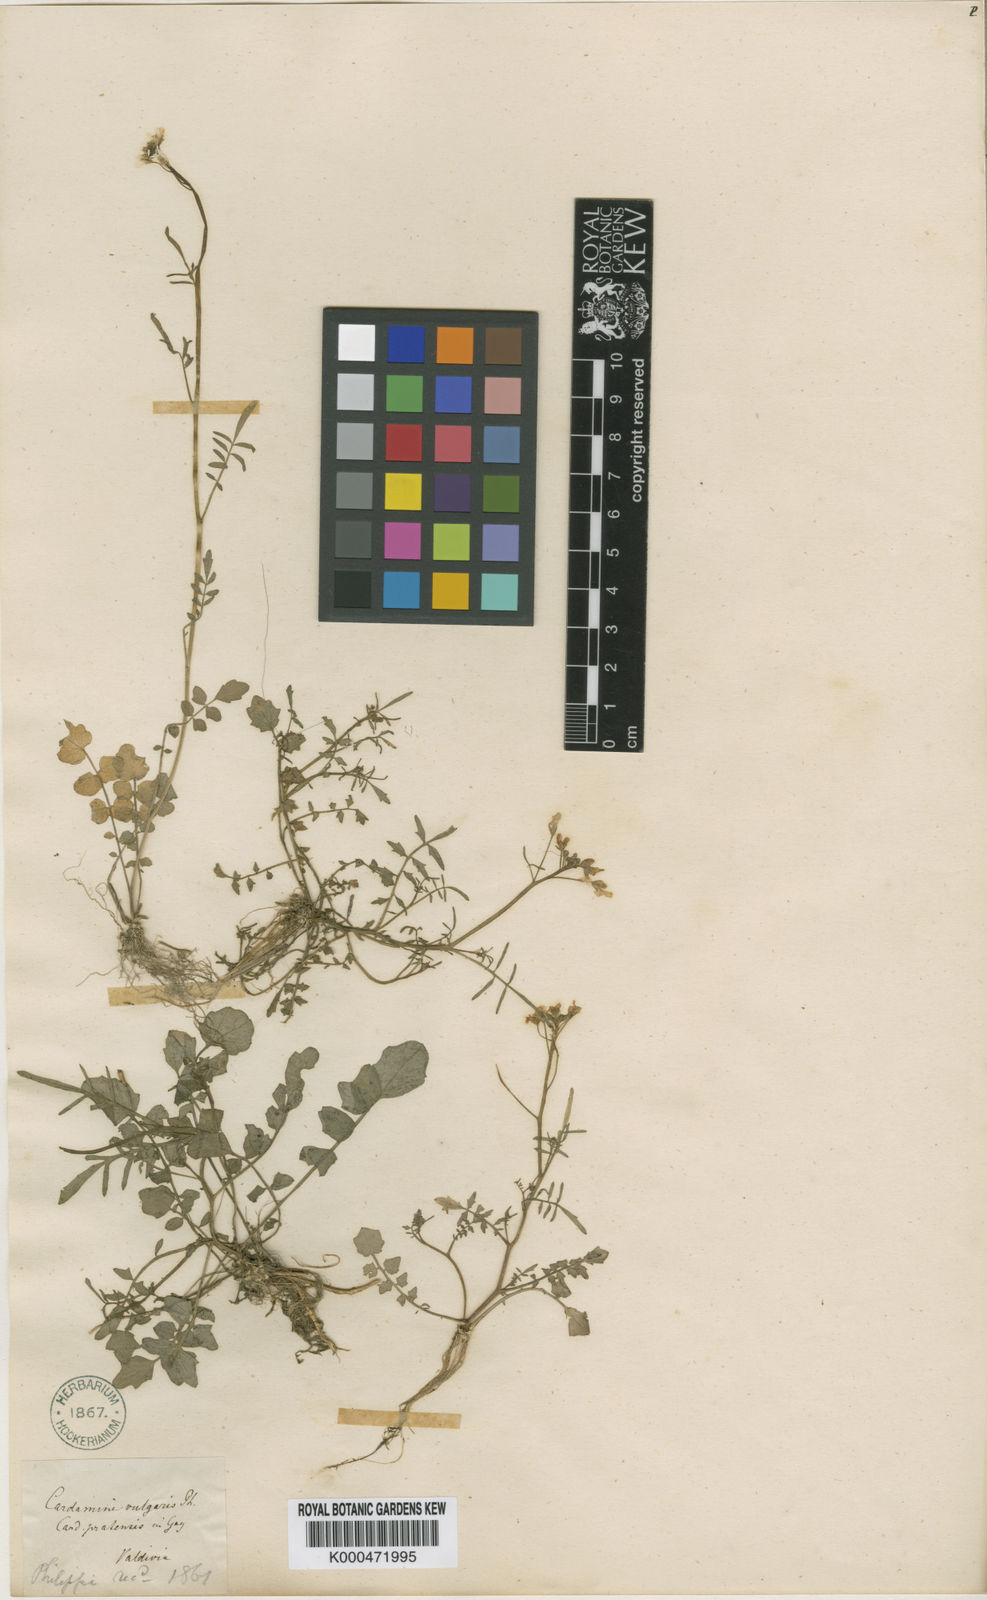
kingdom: Plantae
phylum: Tracheophyta
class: Magnoliopsida
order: Brassicales
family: Brassicaceae
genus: Cardamine
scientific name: Cardamine vulgaris
